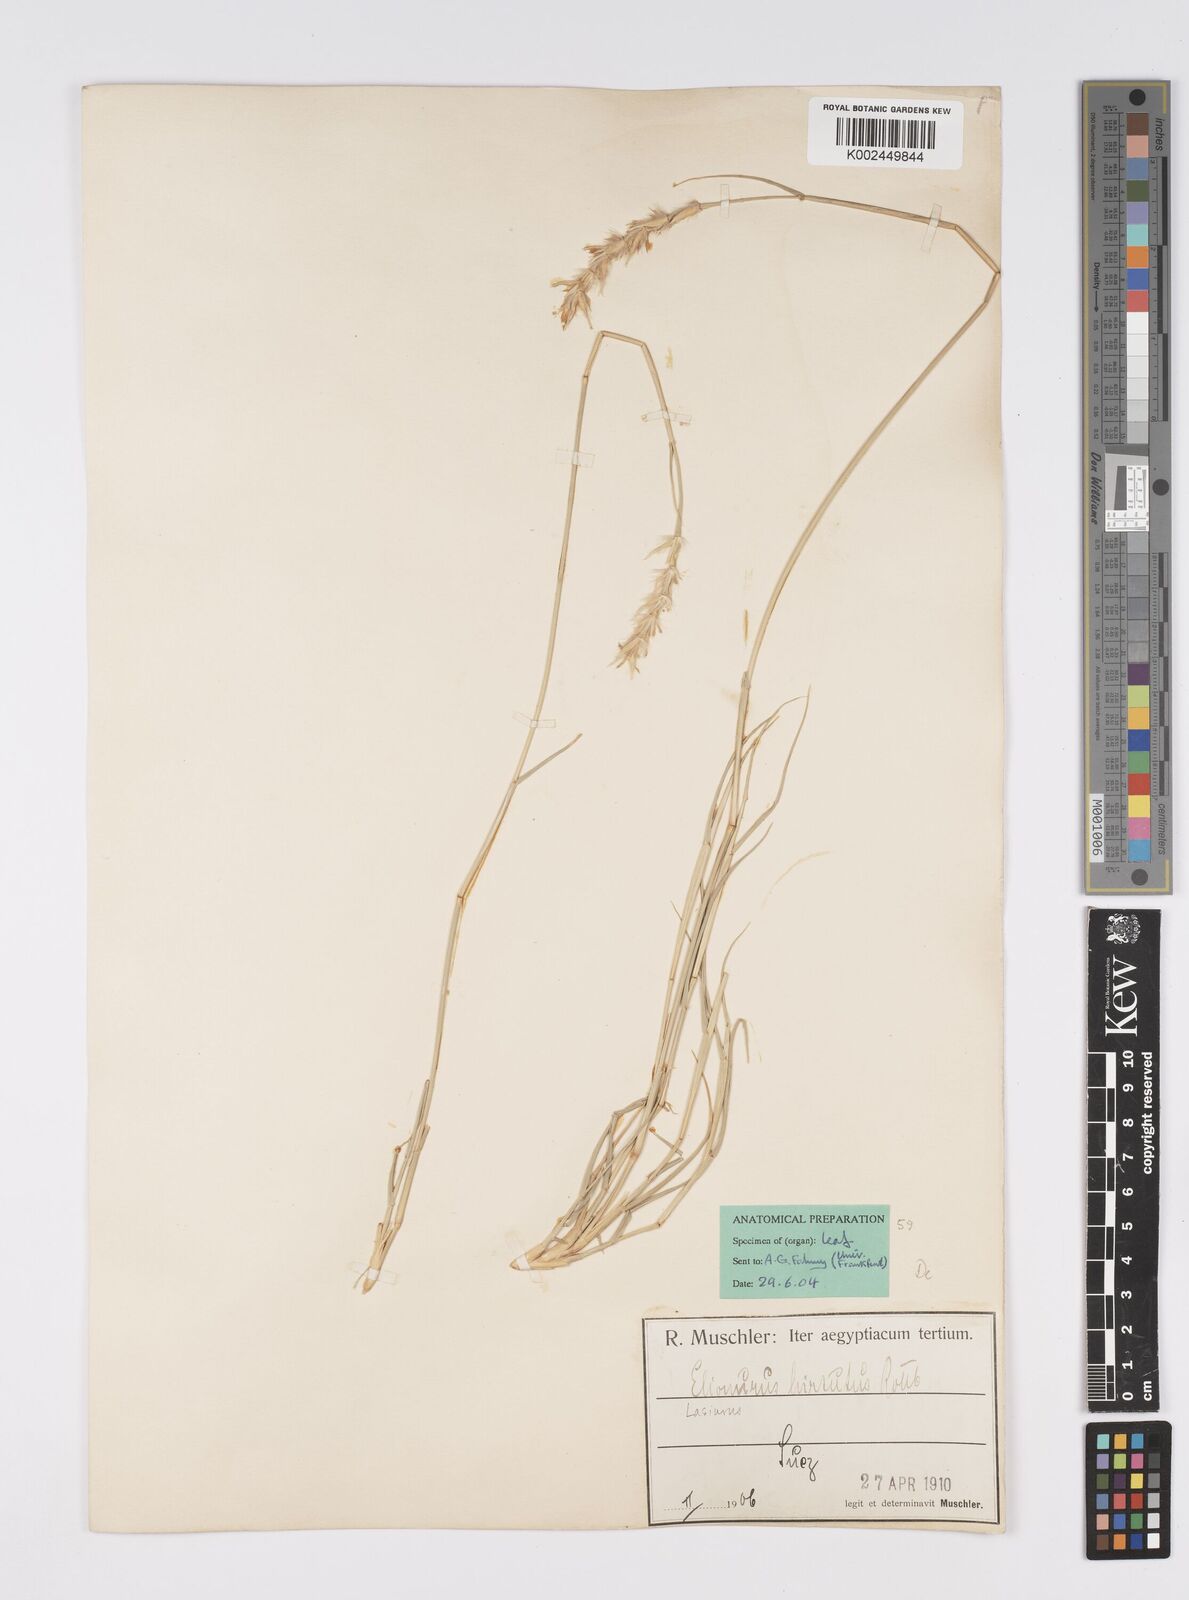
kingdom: Plantae
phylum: Tracheophyta
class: Liliopsida
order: Poales
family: Poaceae
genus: Lasiurus
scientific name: Lasiurus scindicus
